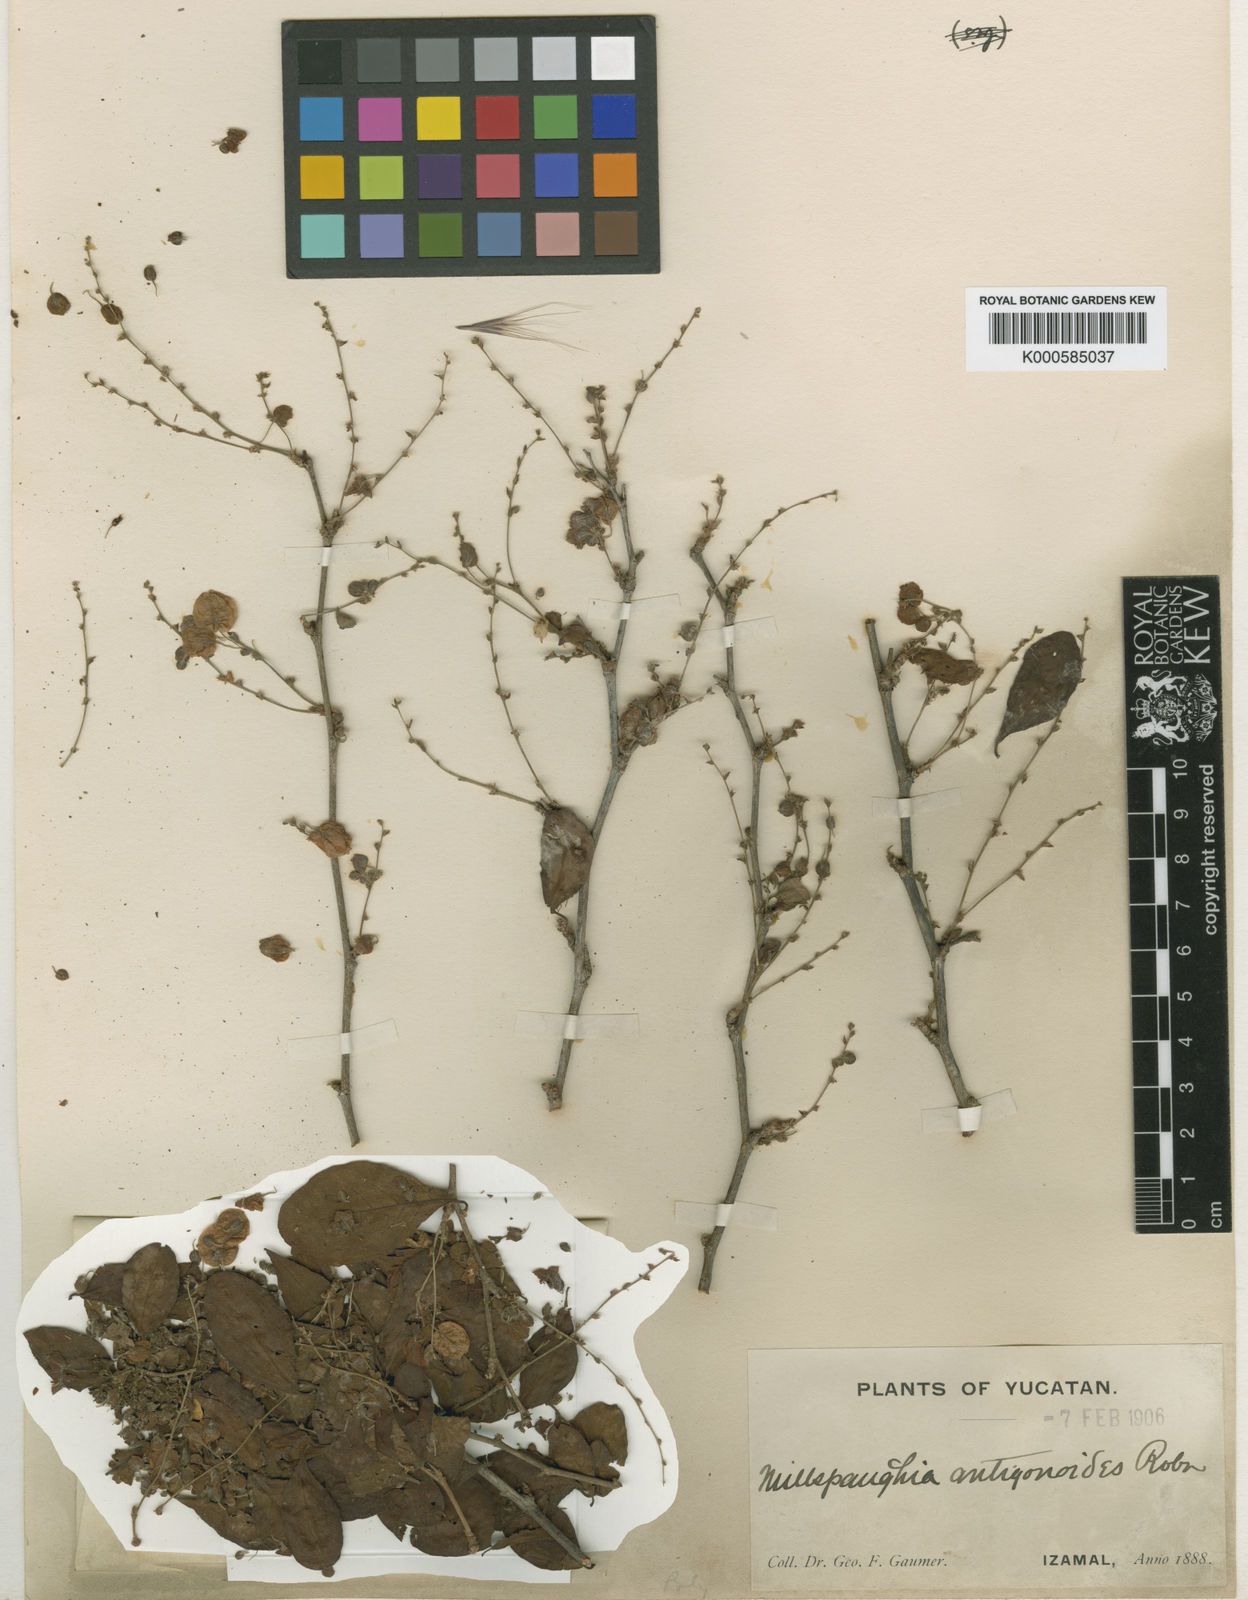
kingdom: Plantae
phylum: Tracheophyta
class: Magnoliopsida
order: Caryophyllales
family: Polygonaceae
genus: Gymnopodium
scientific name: Gymnopodium floribundum
